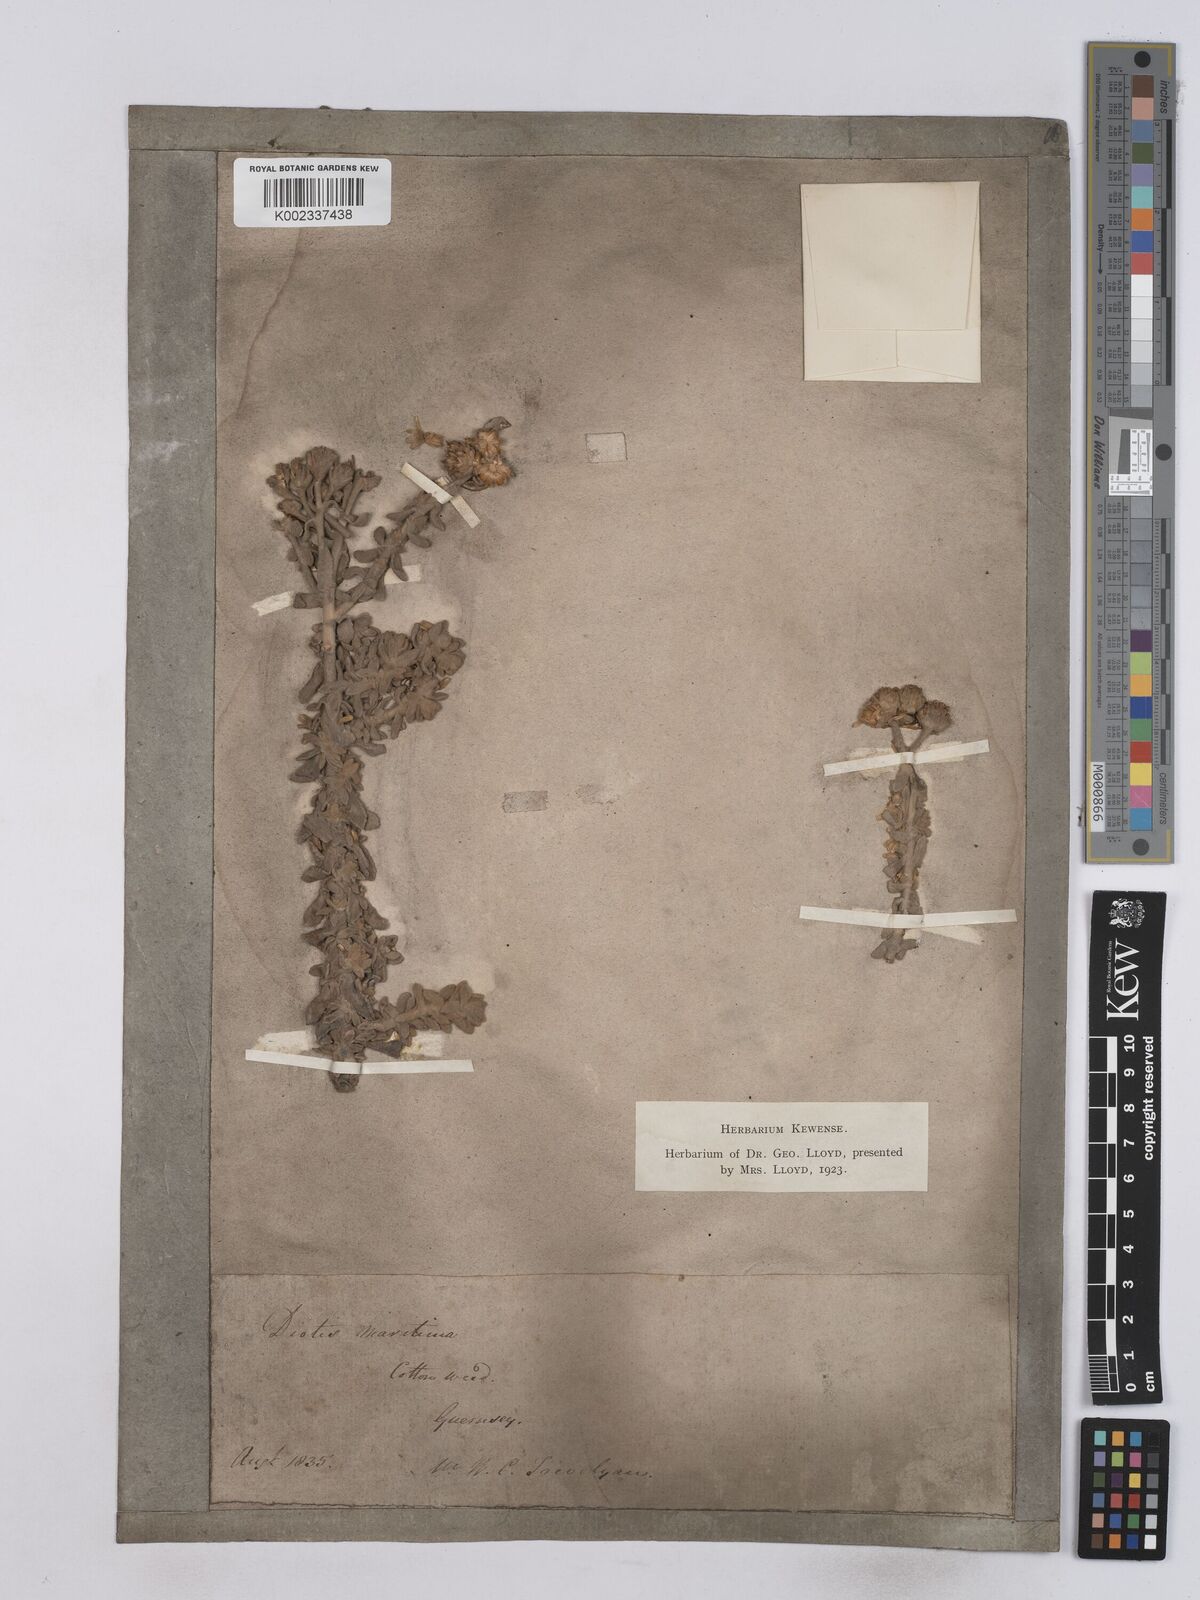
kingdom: Plantae
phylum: Tracheophyta
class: Magnoliopsida
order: Asterales
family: Asteraceae
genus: Achillea
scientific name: Achillea maritima
